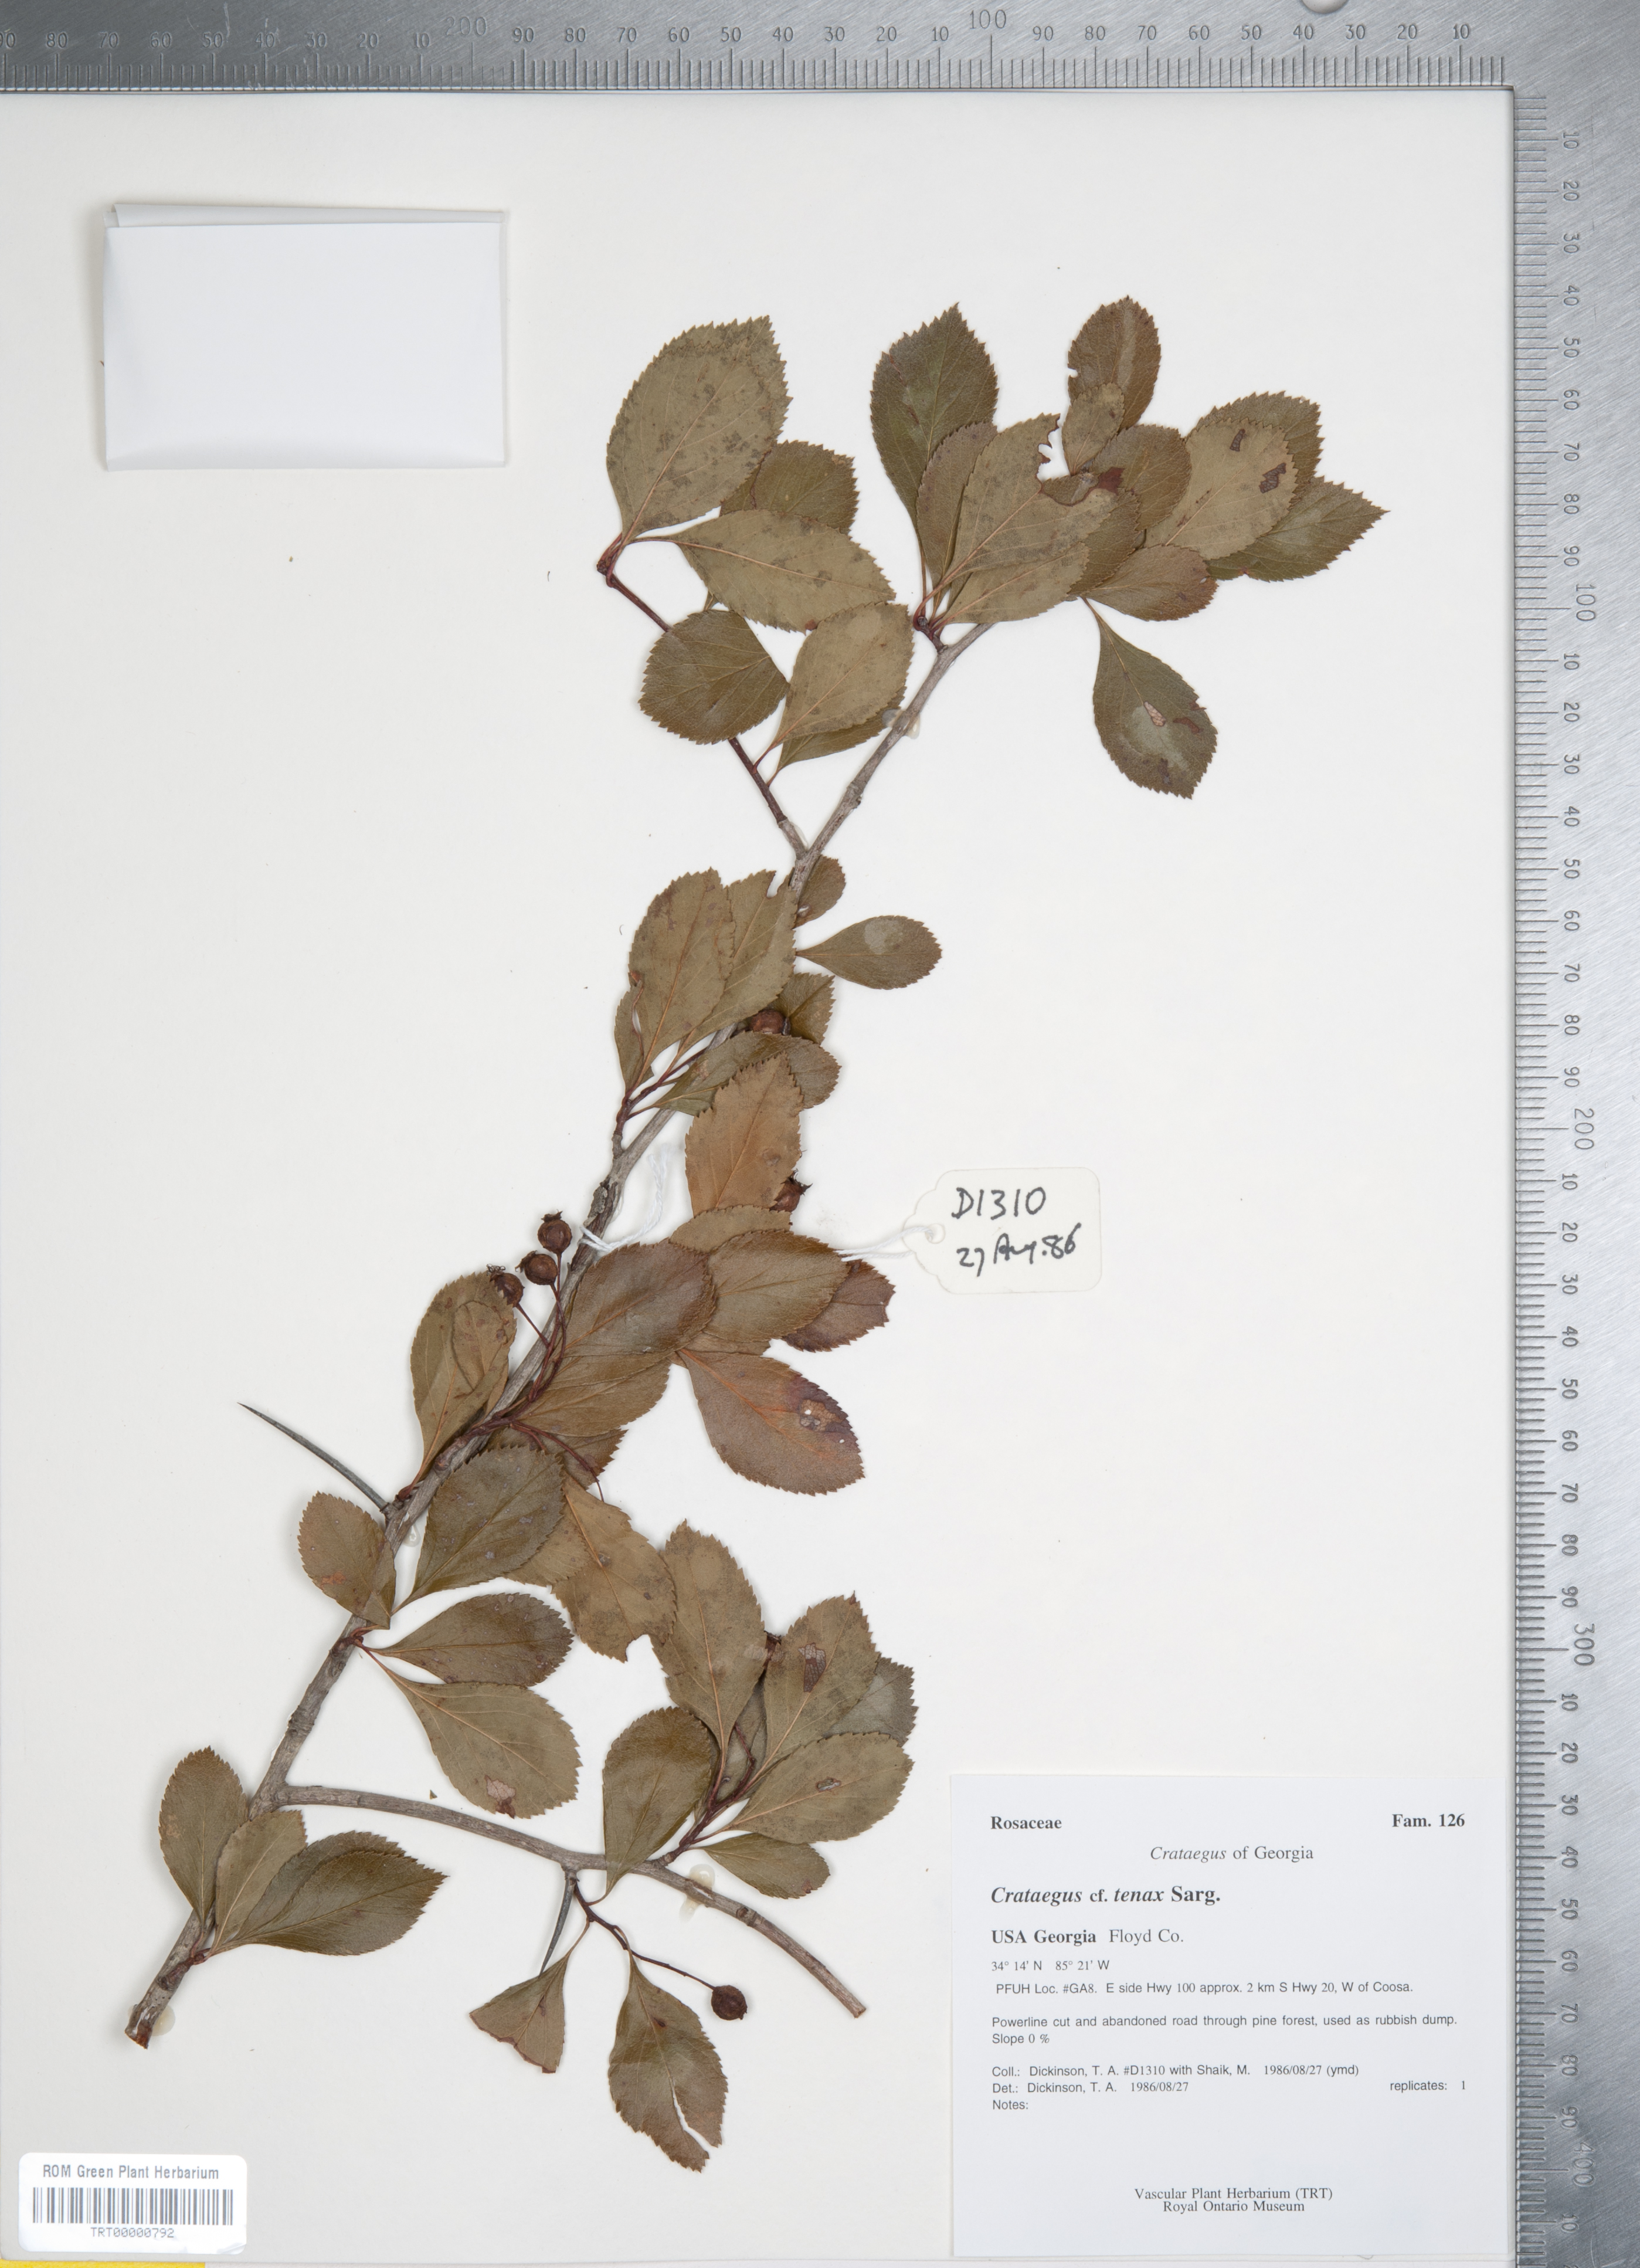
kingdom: Plantae
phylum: Tracheophyta
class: Magnoliopsida
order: Rosales
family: Rosaceae
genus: Crataegus
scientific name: Crataegus crus-galli
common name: Cockspurthorn
